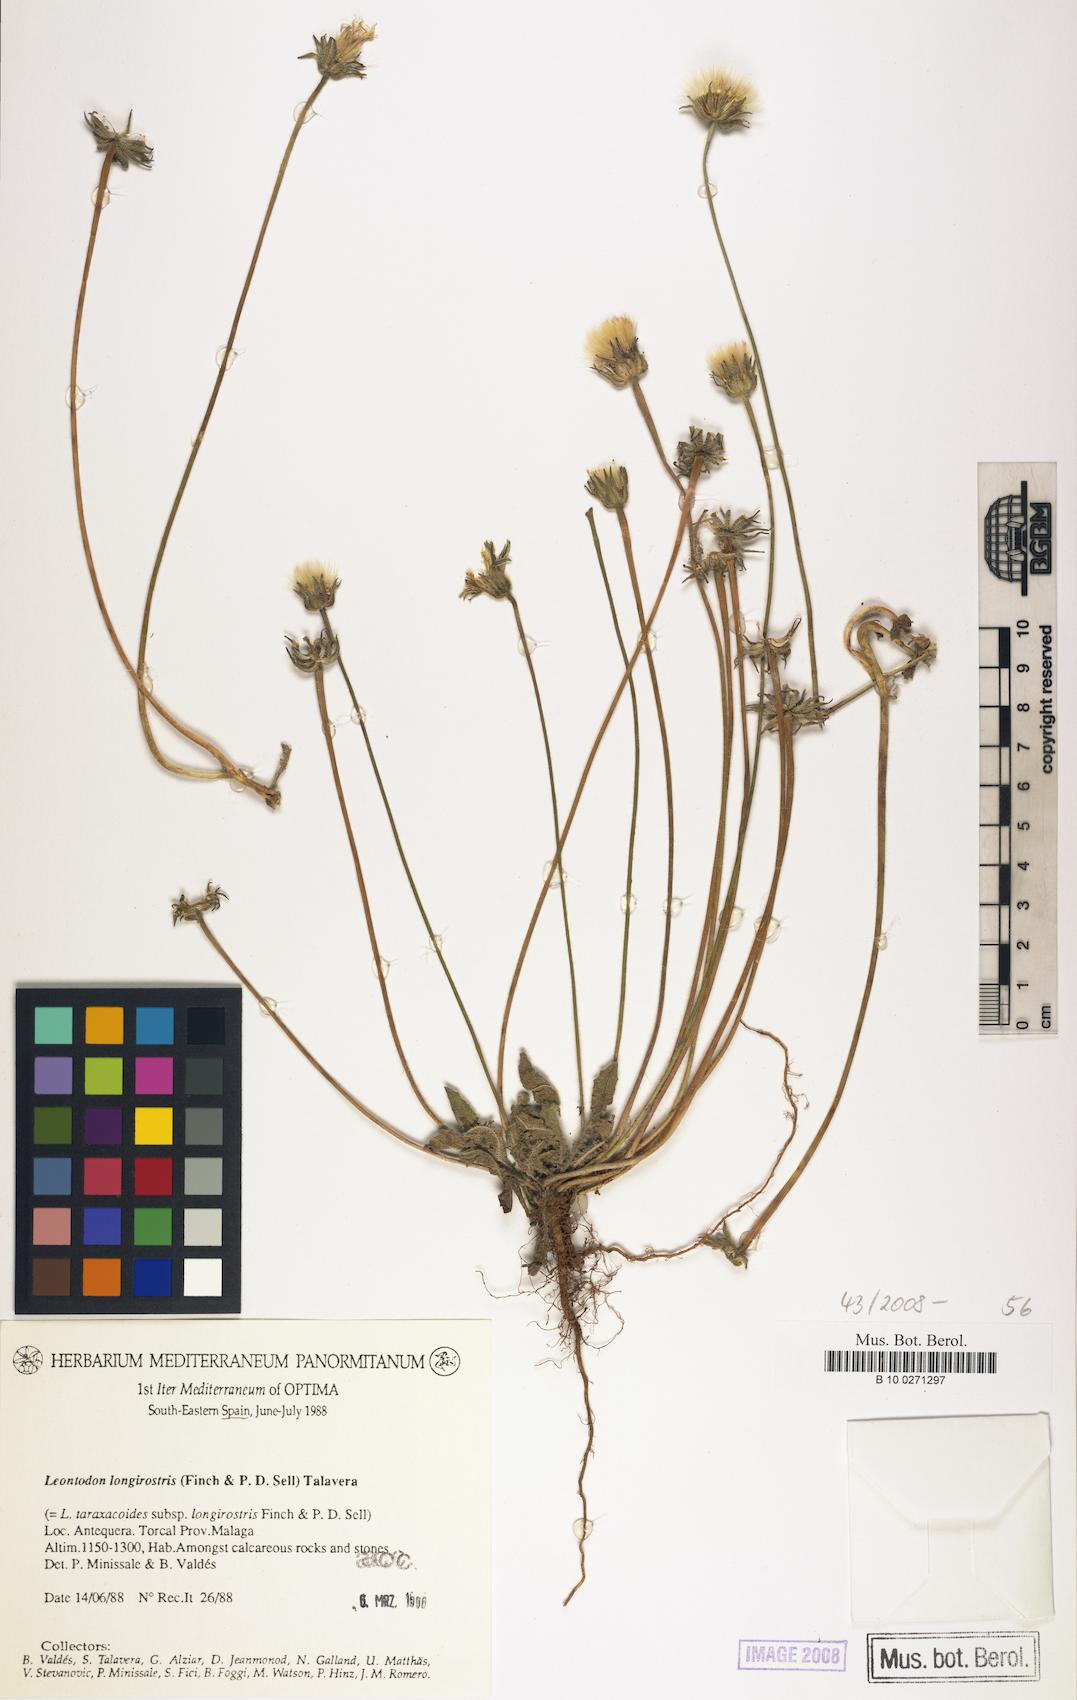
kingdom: Plantae
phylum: Tracheophyta
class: Magnoliopsida
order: Asterales
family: Asteraceae
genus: Thrincia
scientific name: Thrincia hispida
